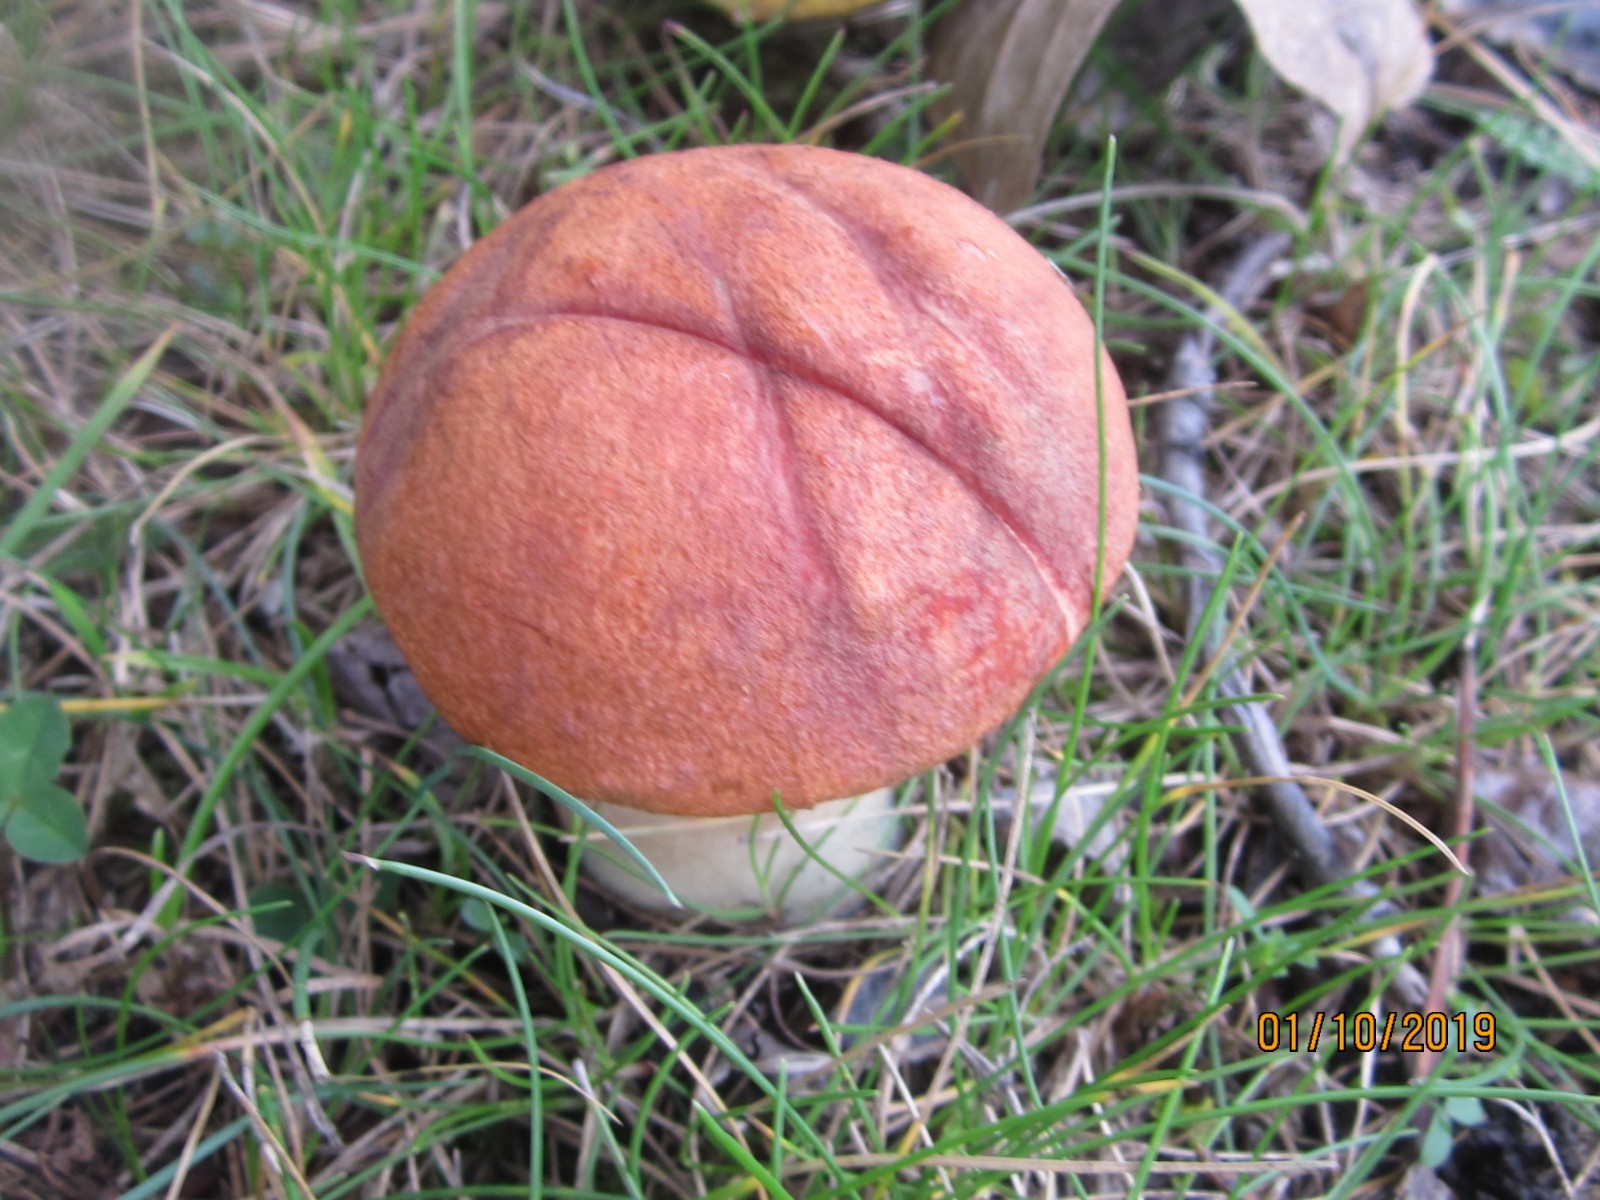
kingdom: Fungi
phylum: Basidiomycota
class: Agaricomycetes
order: Boletales
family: Boletaceae
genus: Leccinum
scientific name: Leccinum aurantiacum
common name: rustrød skælrørhat
